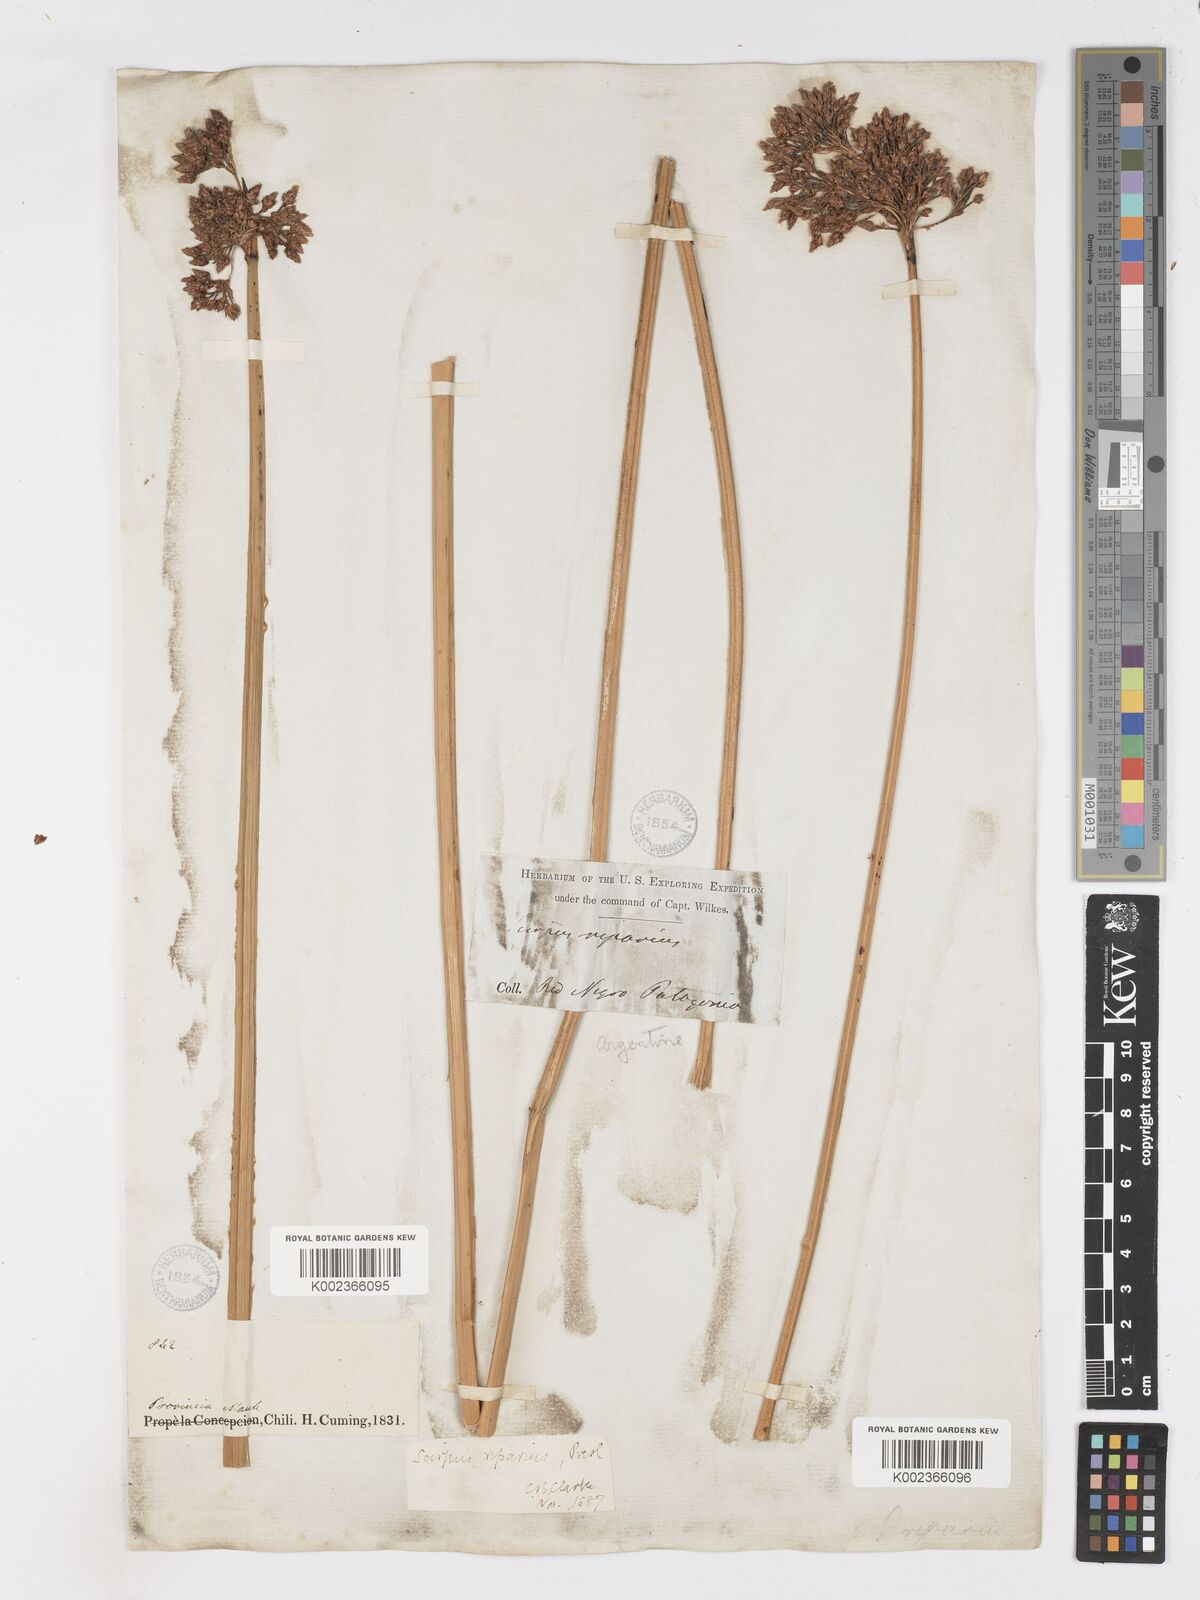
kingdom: Plantae
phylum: Tracheophyta
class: Liliopsida
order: Poales
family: Cyperaceae
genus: Schoenoplectus
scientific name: Schoenoplectus californicus
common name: California bulrush
